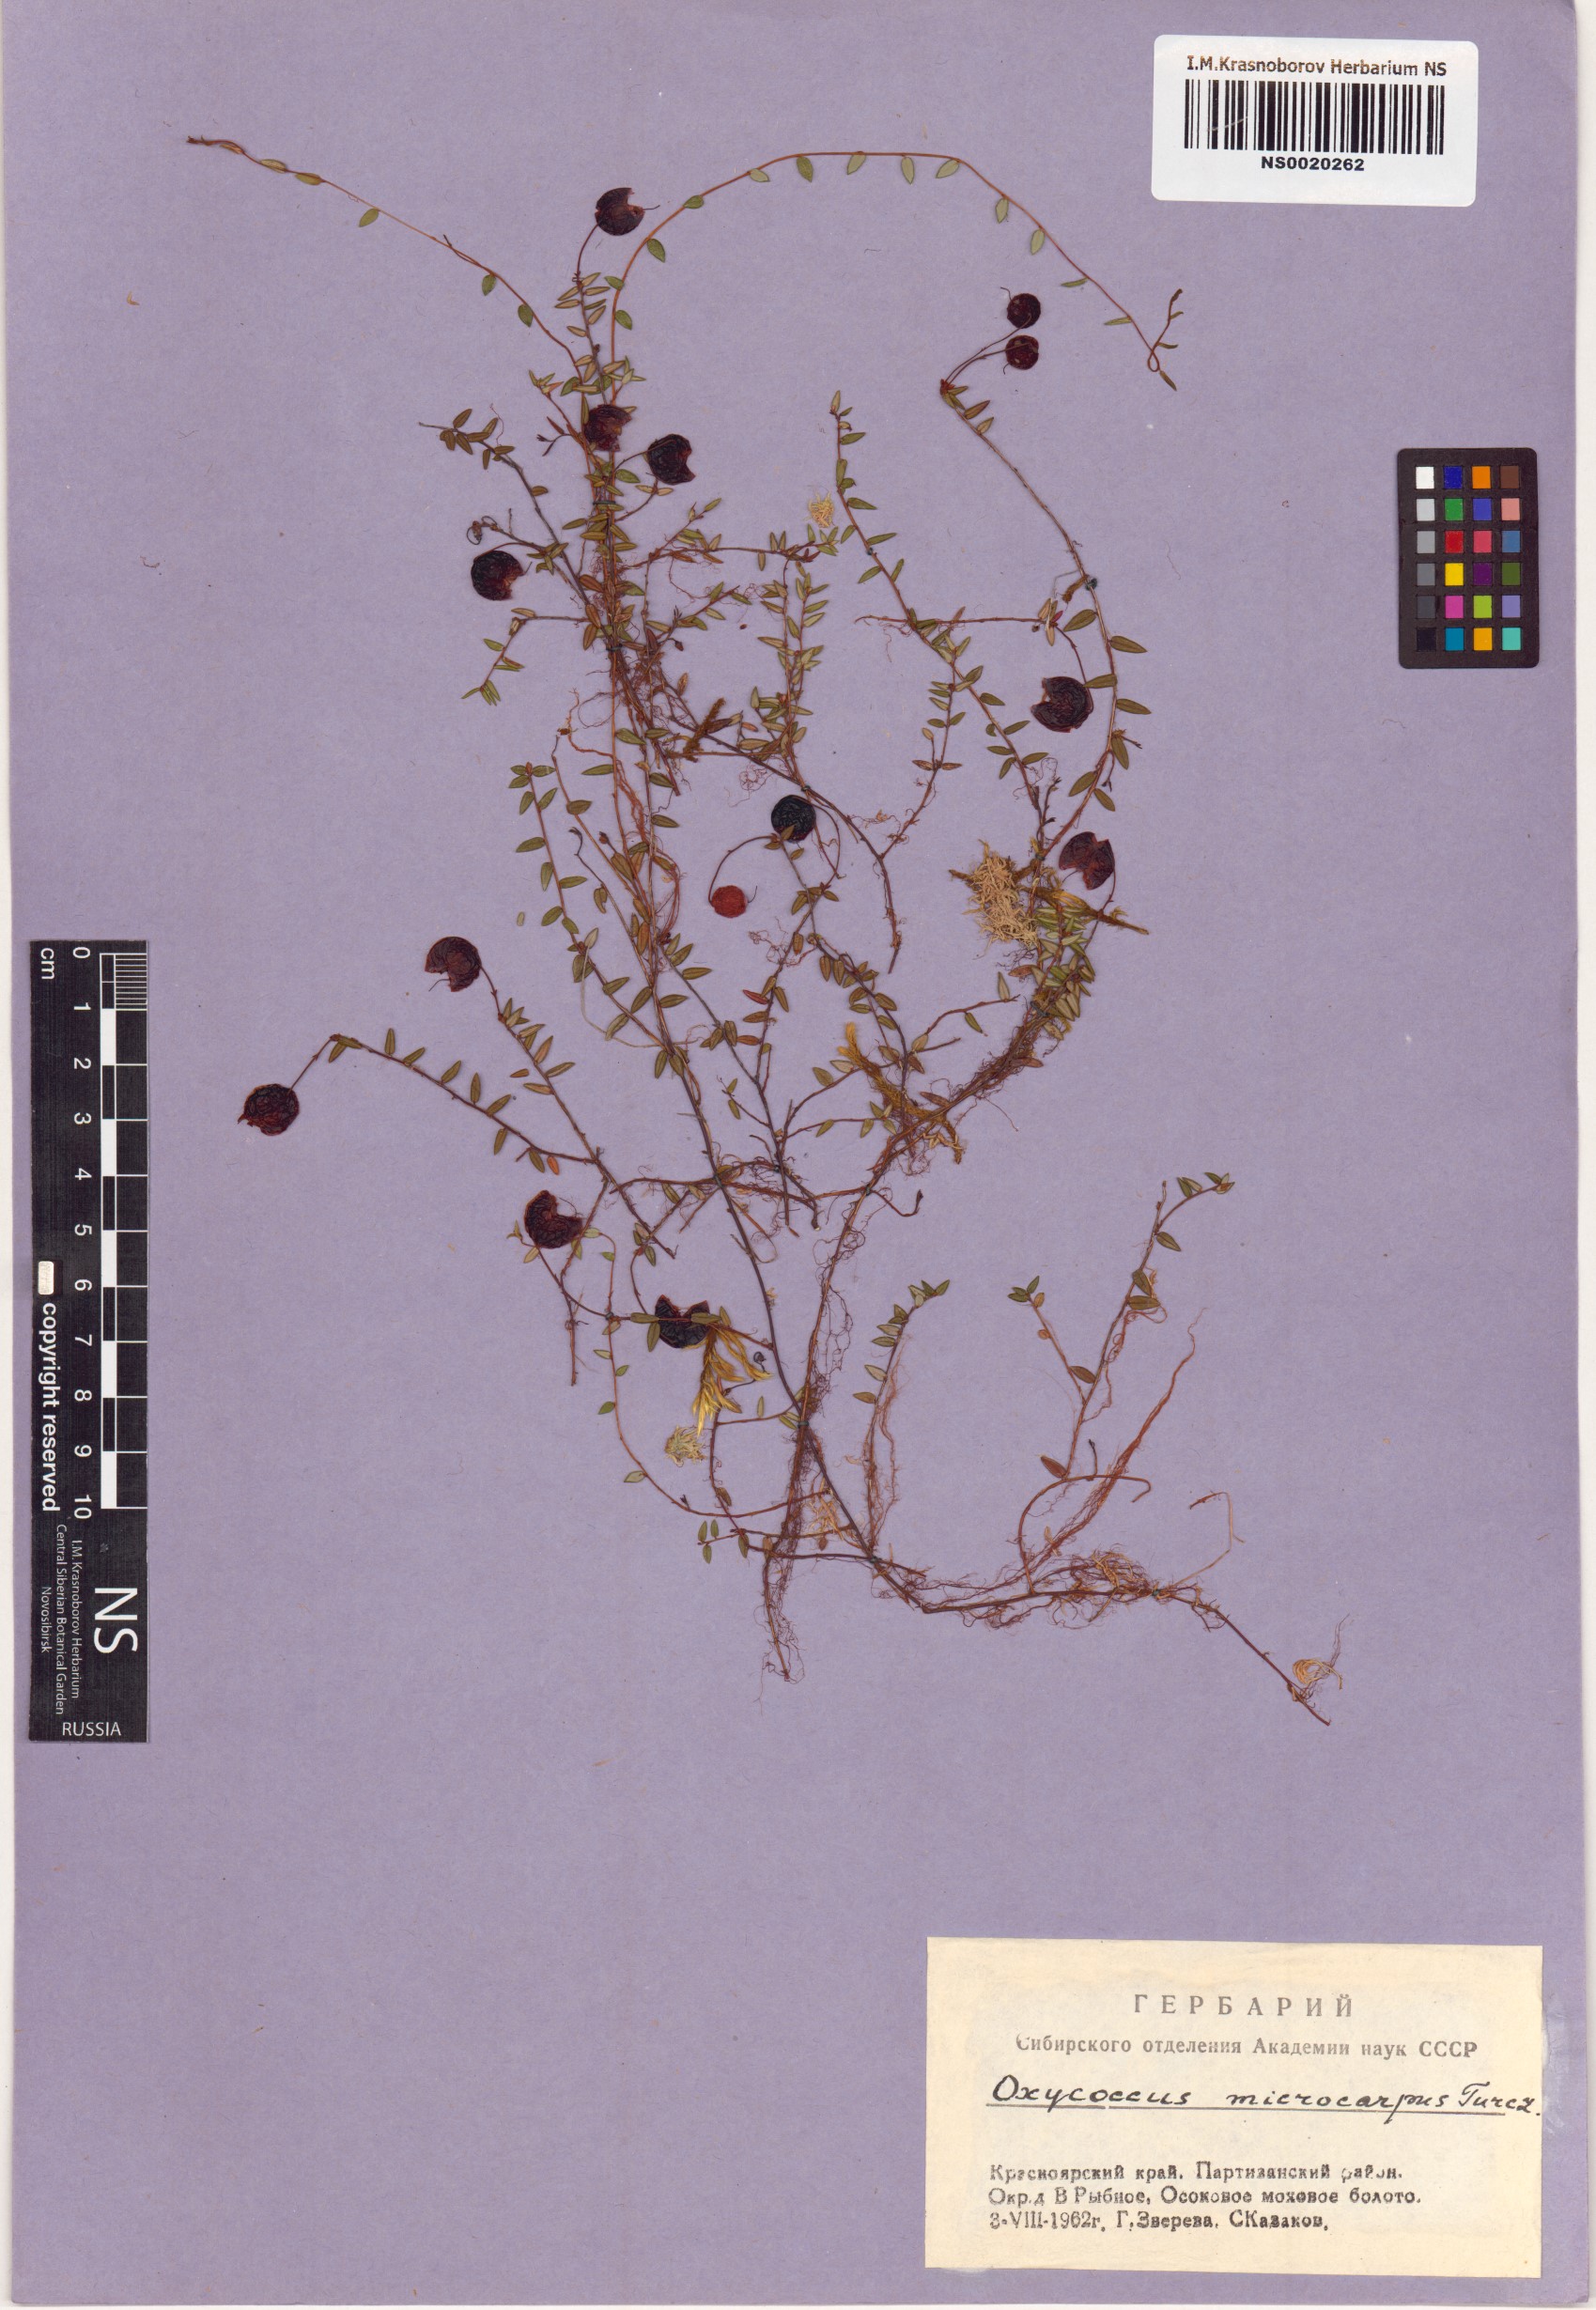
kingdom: Plantae
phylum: Tracheophyta
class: Magnoliopsida
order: Ericales
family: Ericaceae
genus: Vaccinium
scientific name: Vaccinium microcarpum
